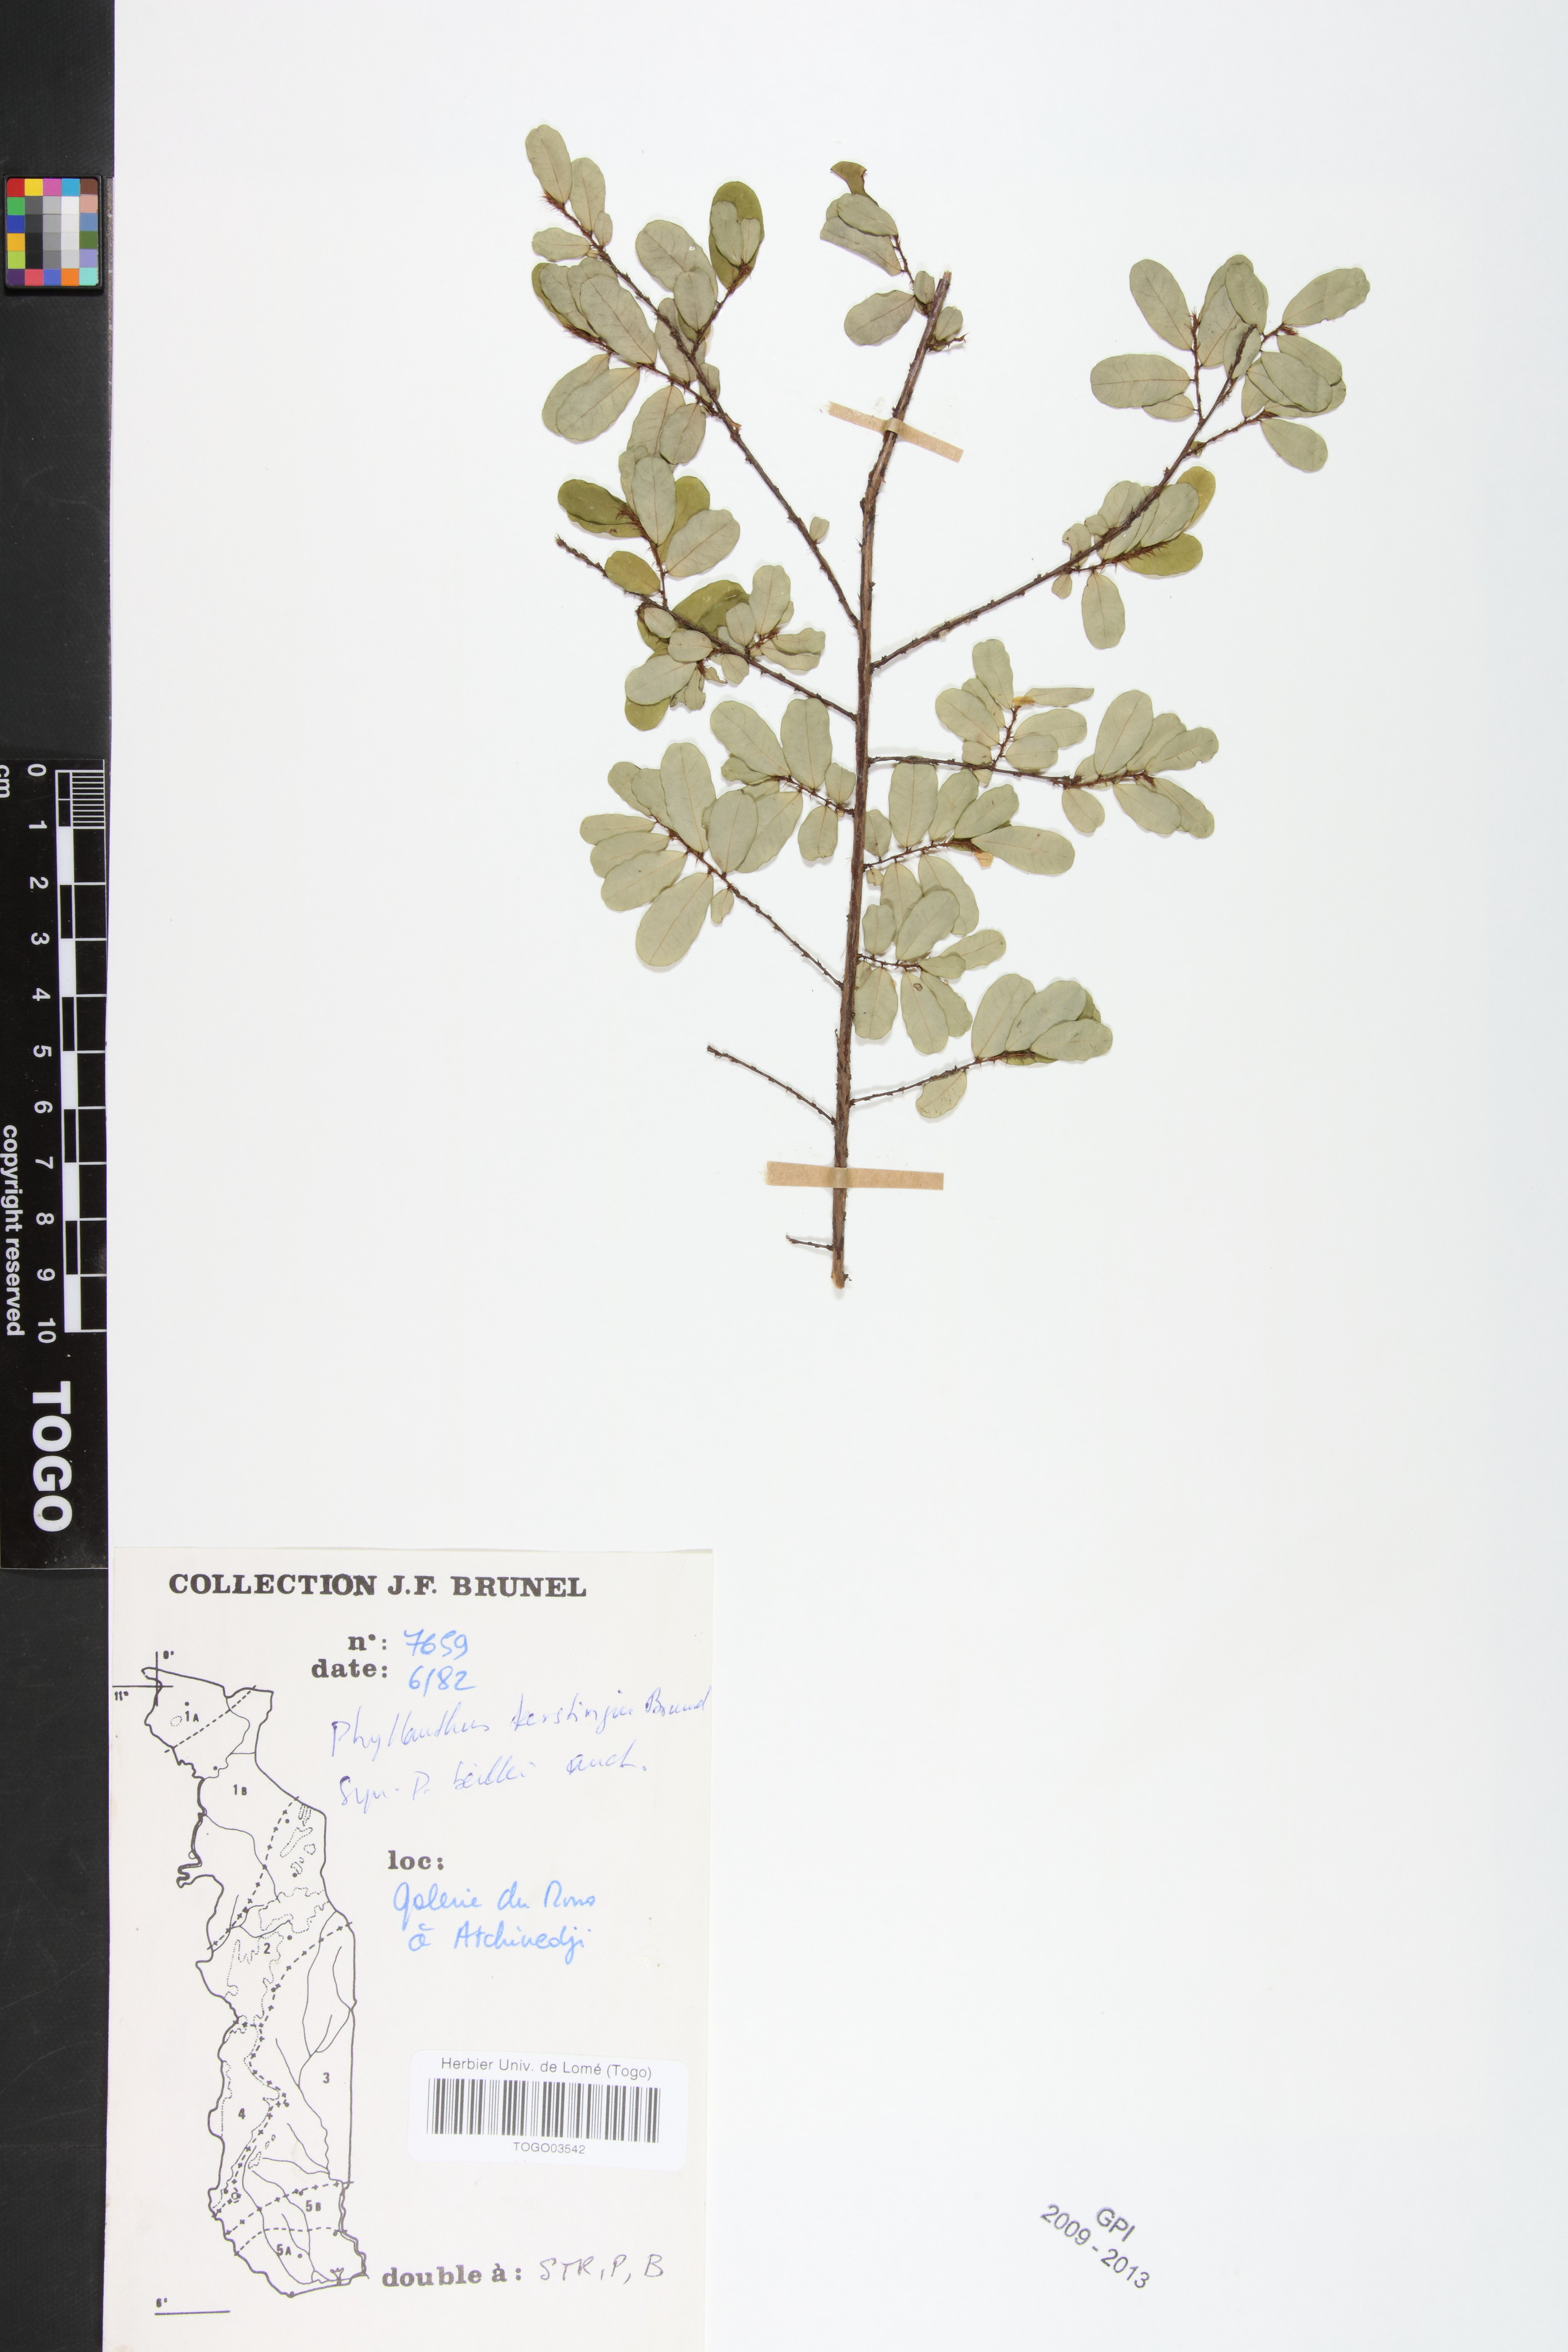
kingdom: Plantae
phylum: Tracheophyta
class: Magnoliopsida
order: Malpighiales
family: Phyllanthaceae
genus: Phyllanthus
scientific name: Phyllanthus kerstingii
